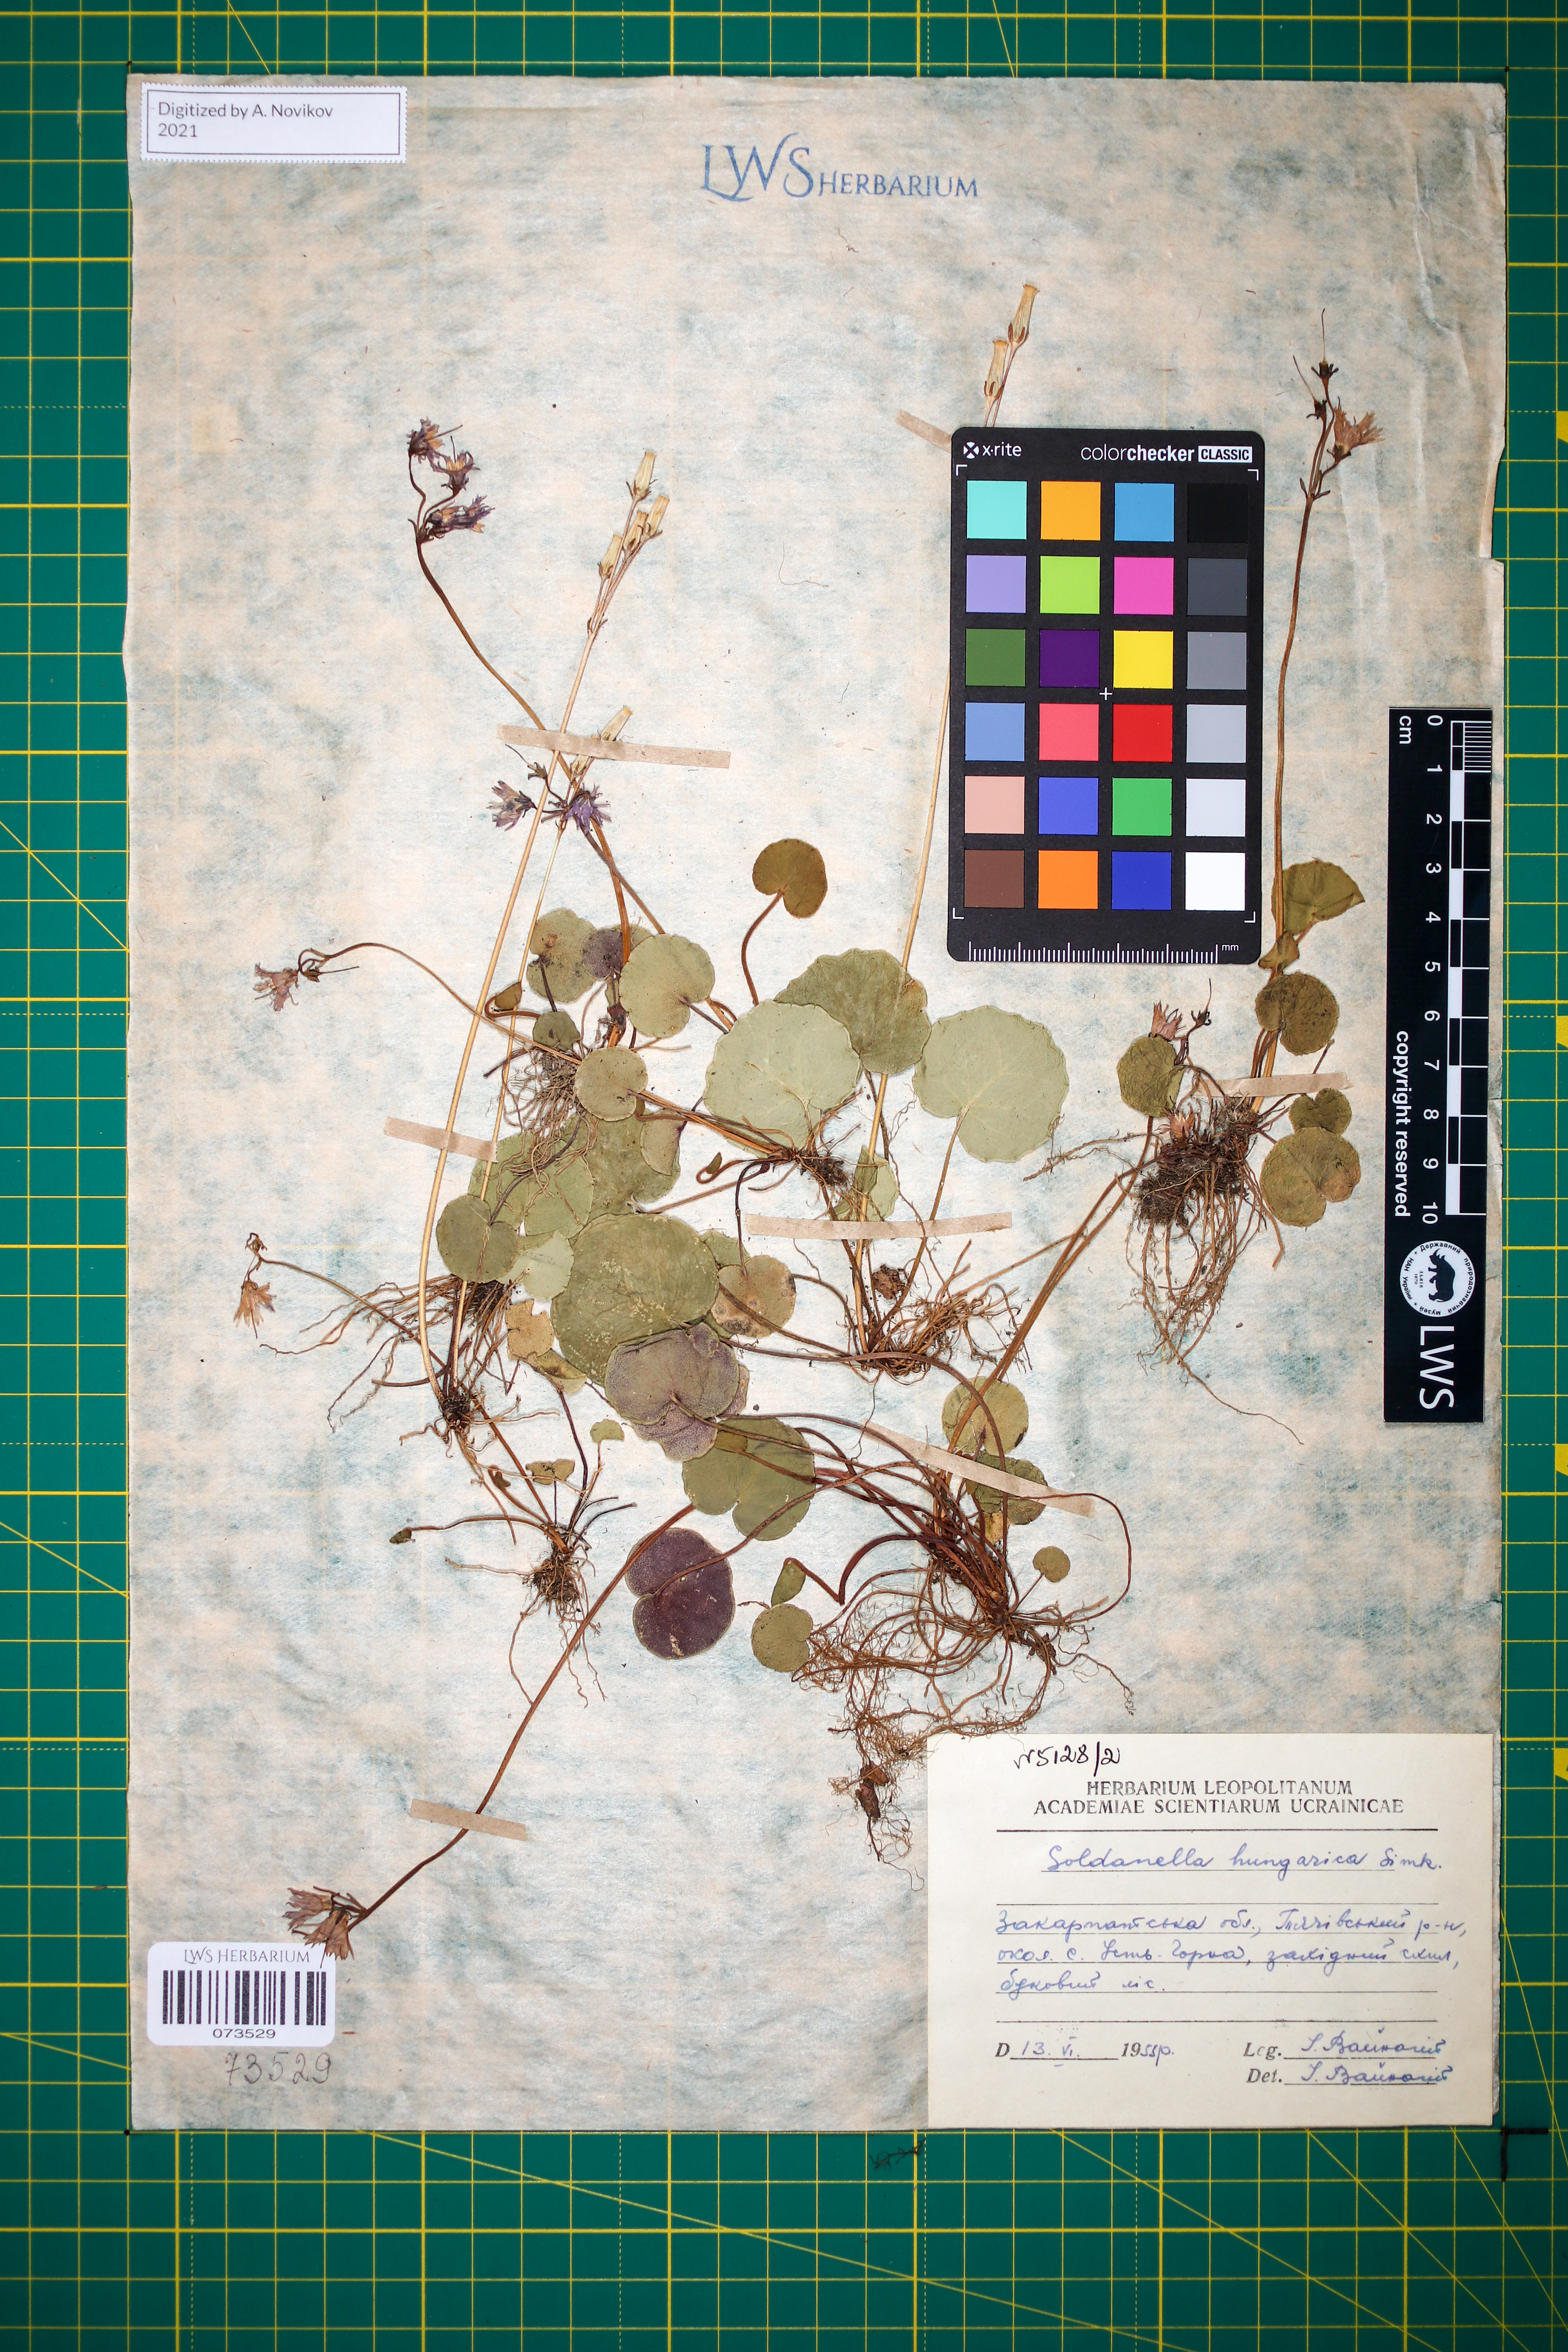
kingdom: Plantae
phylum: Tracheophyta
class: Magnoliopsida
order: Ericales
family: Primulaceae
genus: Soldanella
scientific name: Soldanella hungarica
